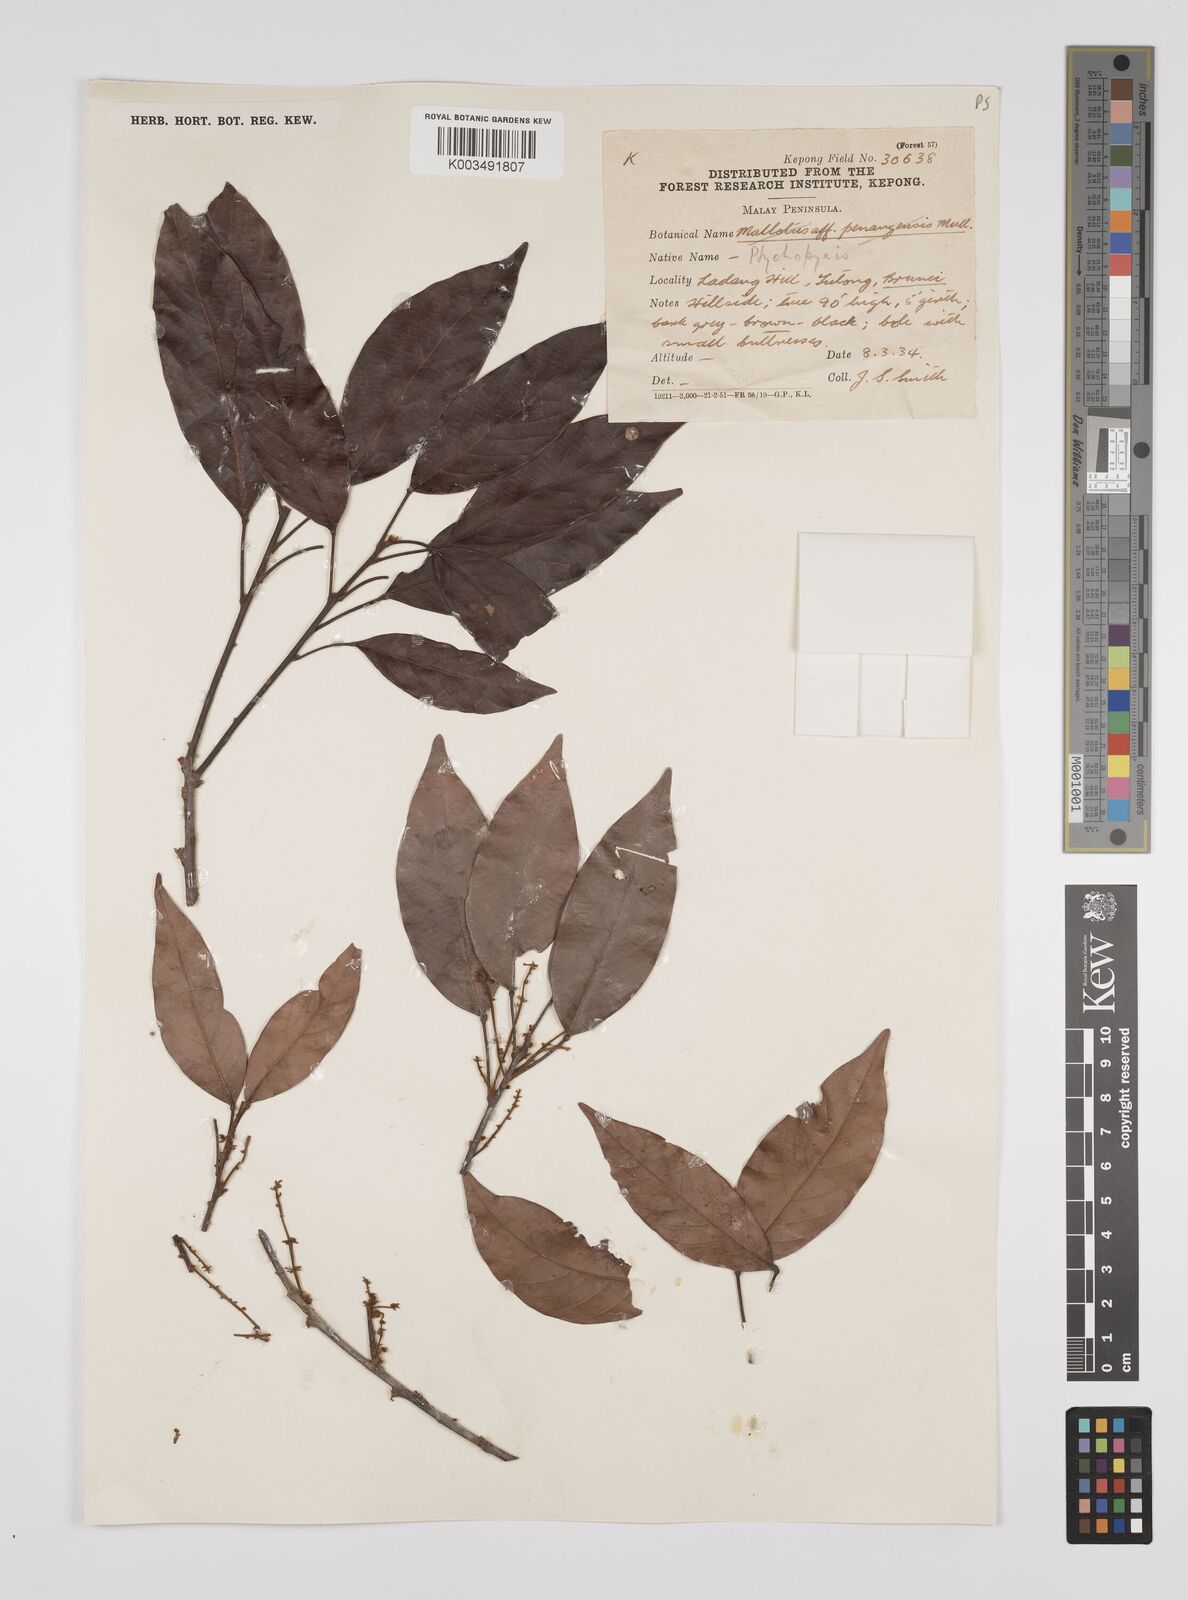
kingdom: Plantae
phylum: Tracheophyta
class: Magnoliopsida
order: Malpighiales
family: Euphorbiaceae
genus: Ptychopyxis
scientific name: Ptychopyxis
